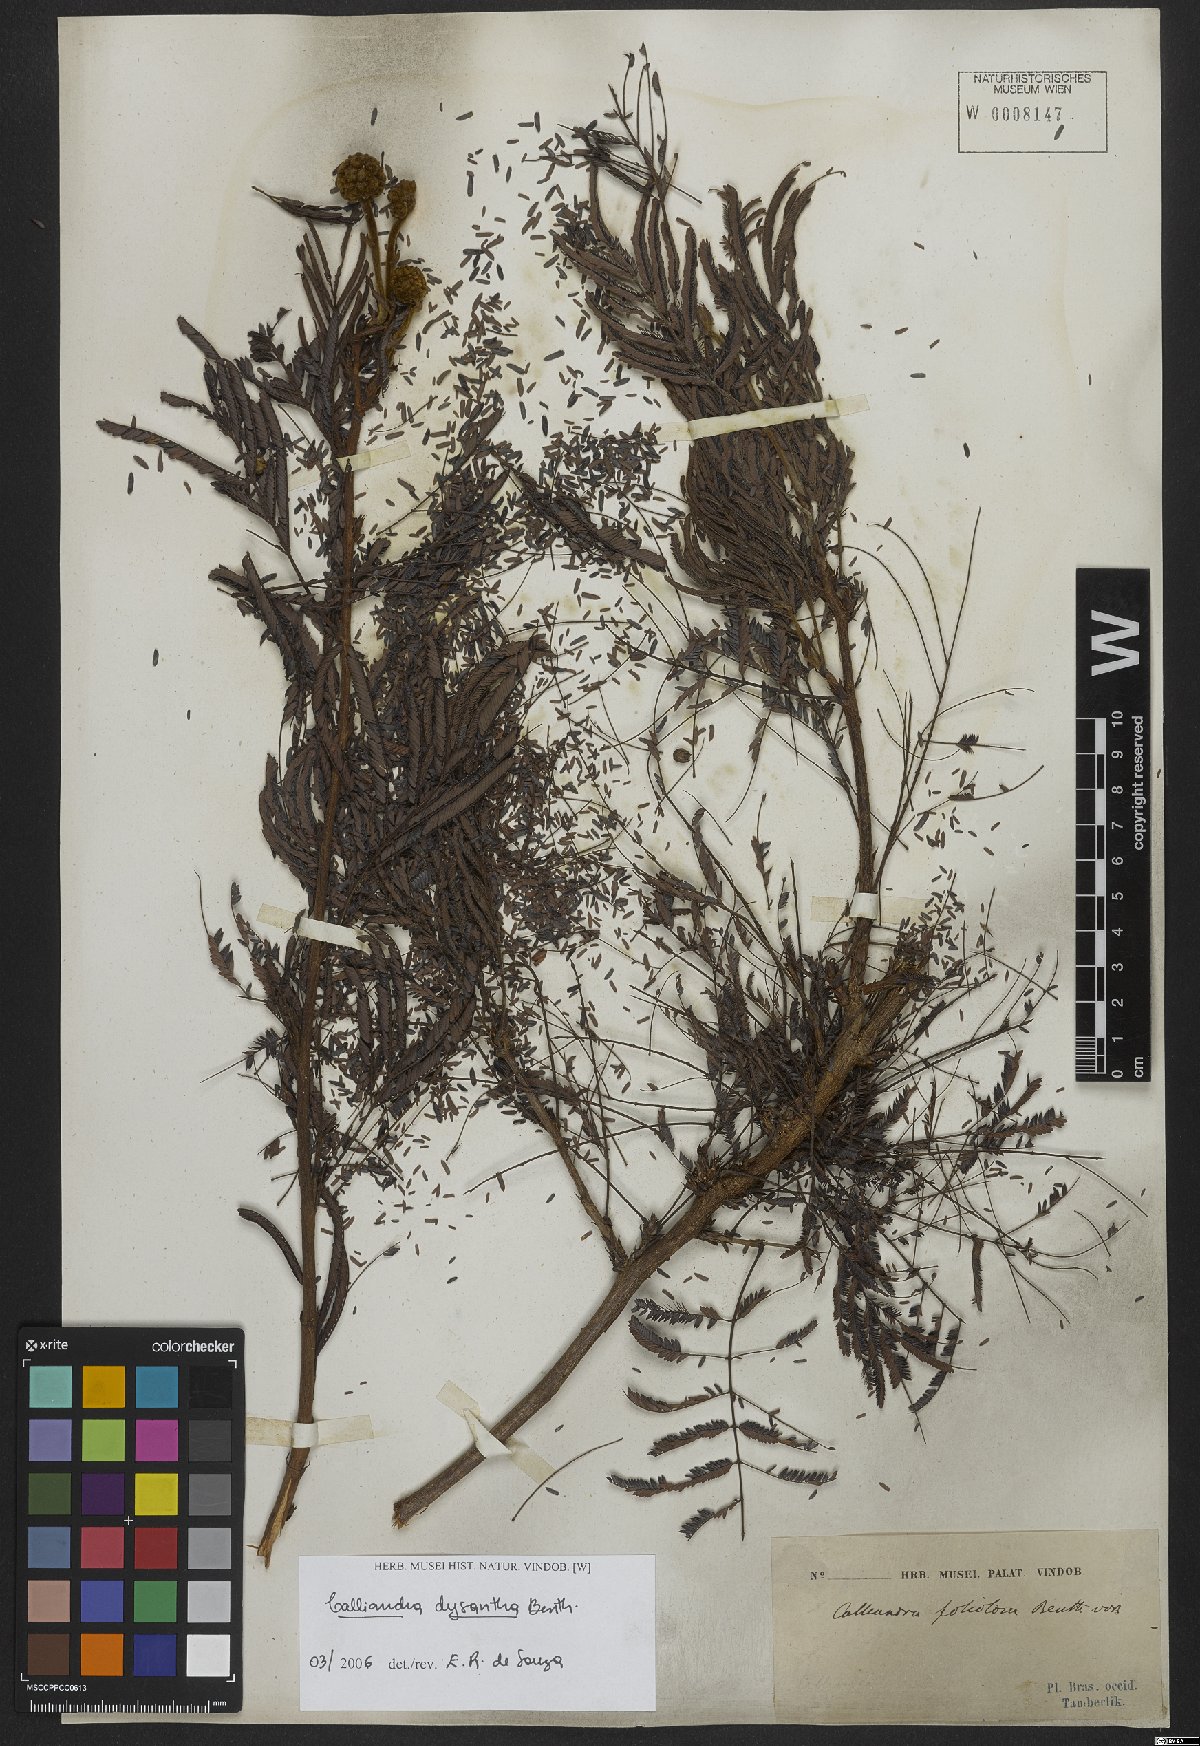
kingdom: Plantae
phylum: Tracheophyta
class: Magnoliopsida
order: Fabales
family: Fabaceae
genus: Calliandra
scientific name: Calliandra dysantha
